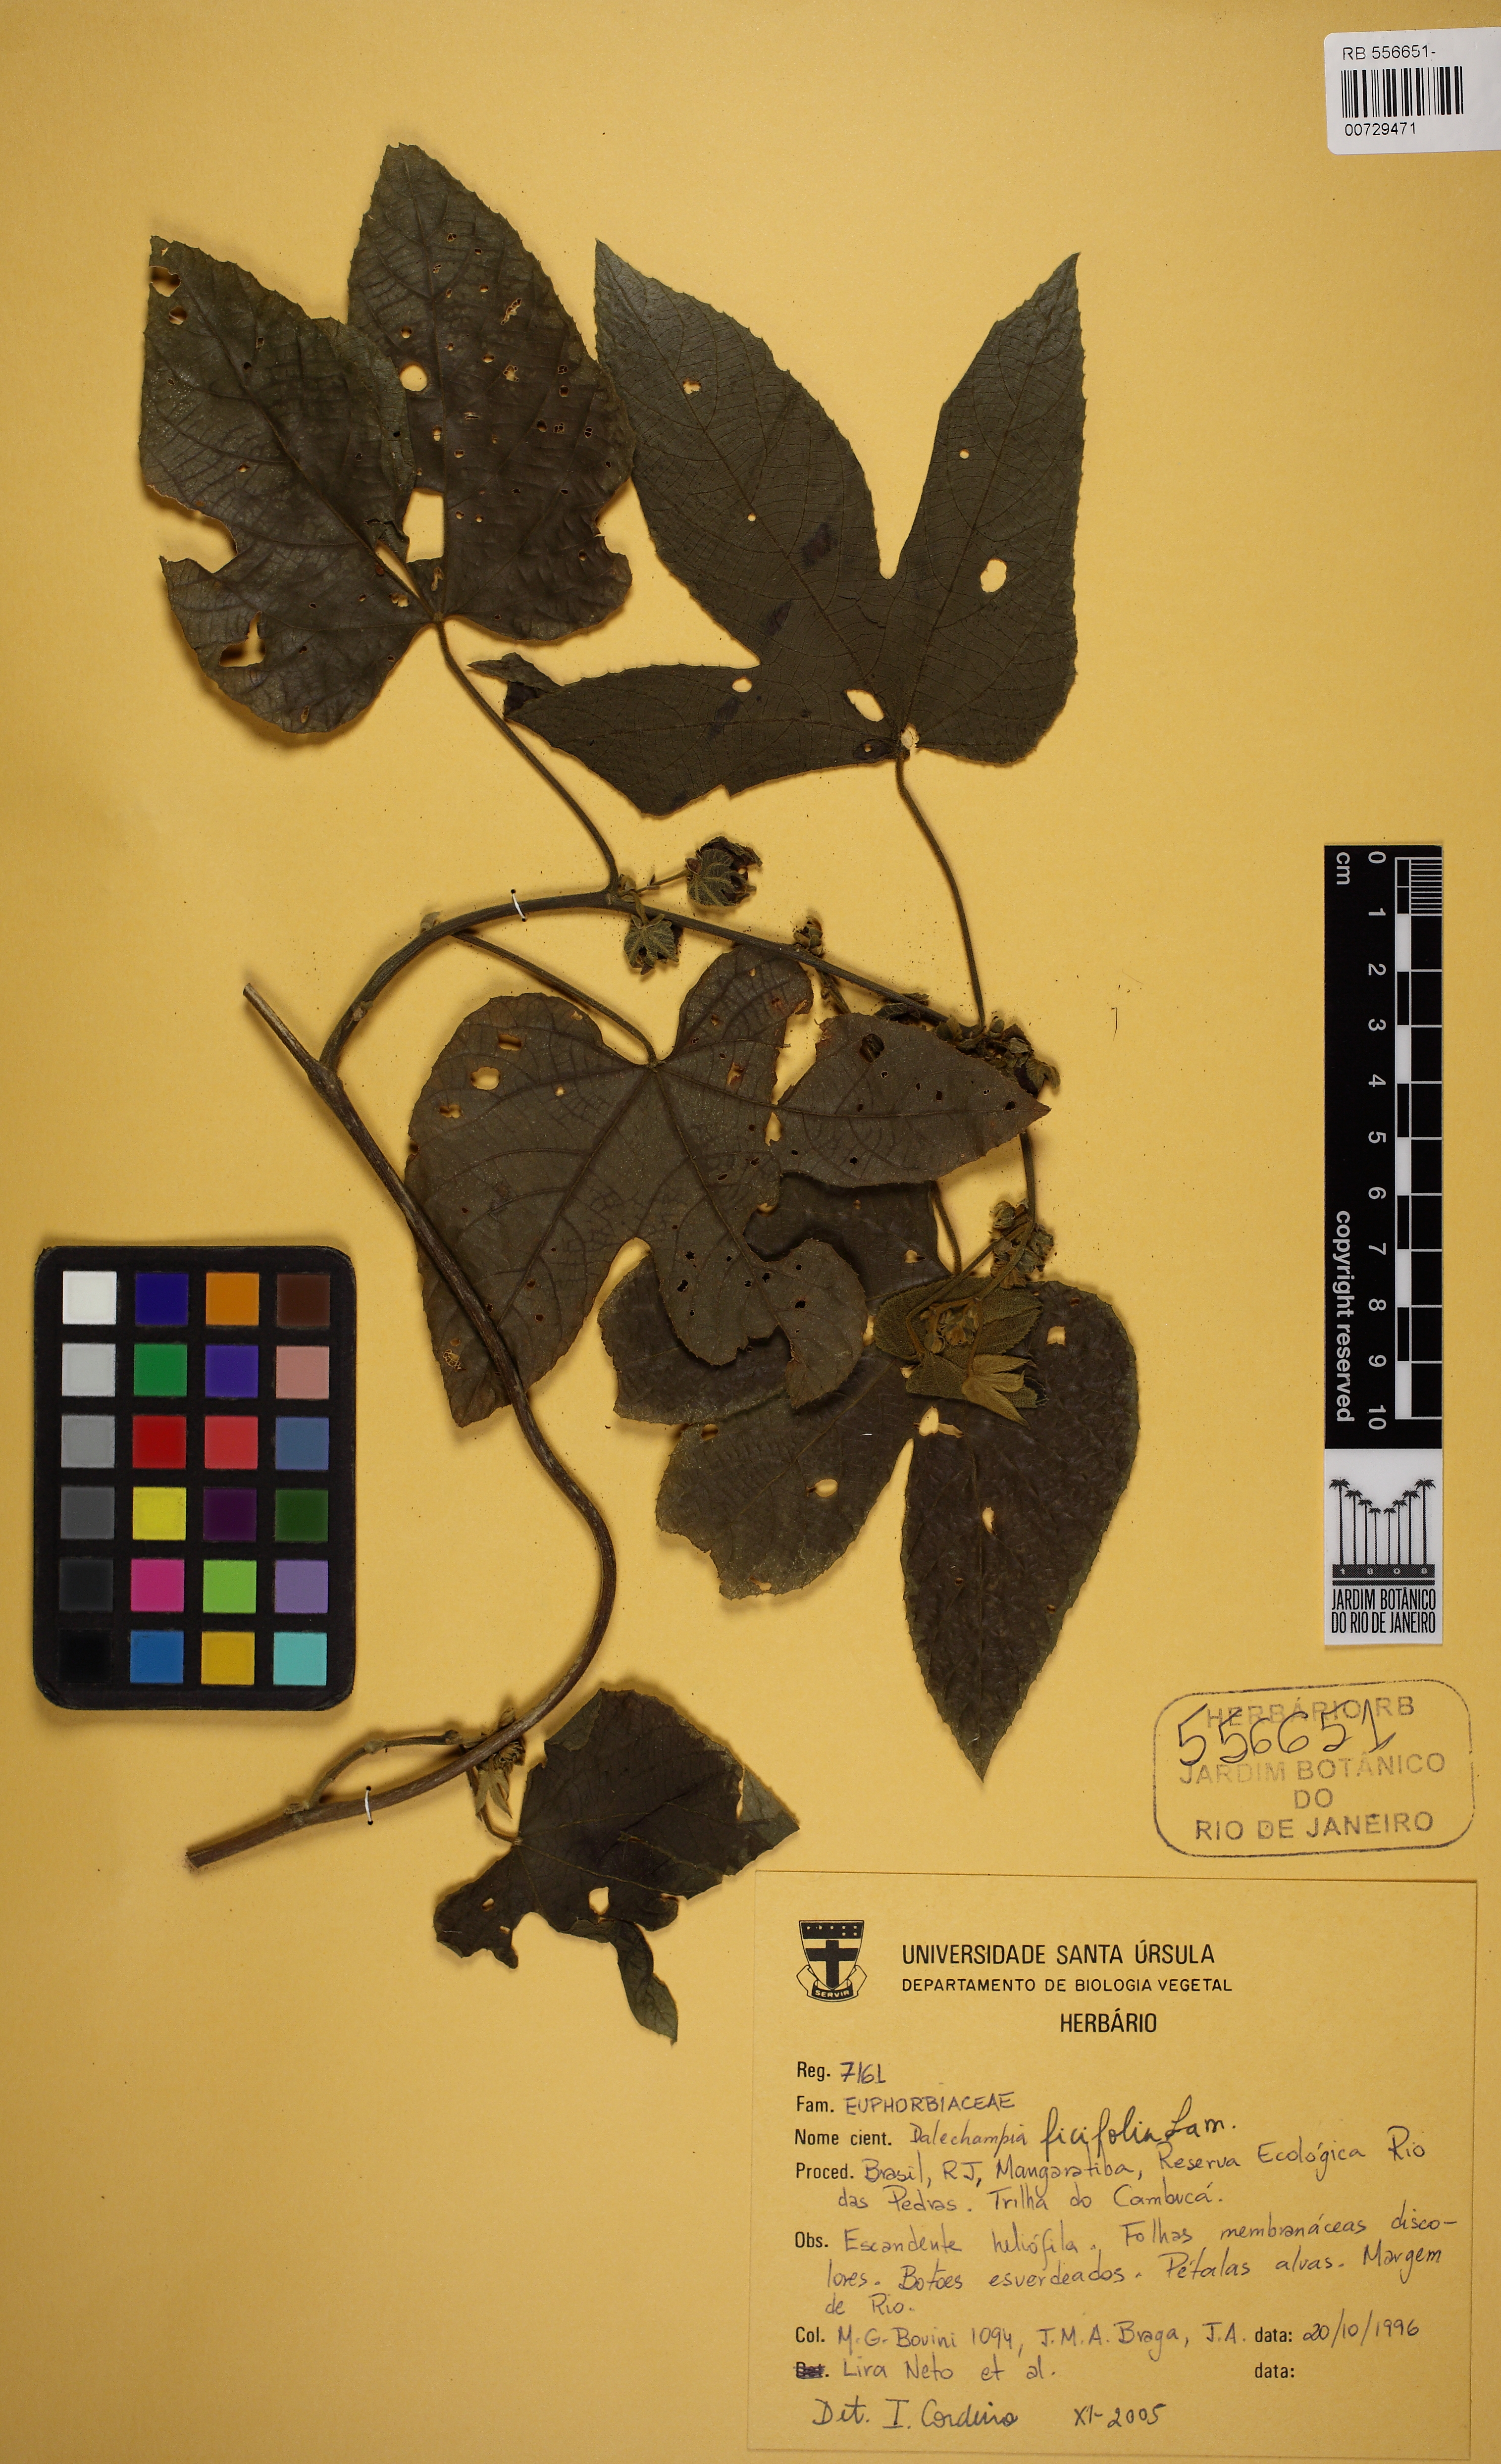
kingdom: Plantae
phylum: Tracheophyta
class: Magnoliopsida
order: Malpighiales
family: Euphorbiaceae
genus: Dalechampia
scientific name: Dalechampia ficifolia
